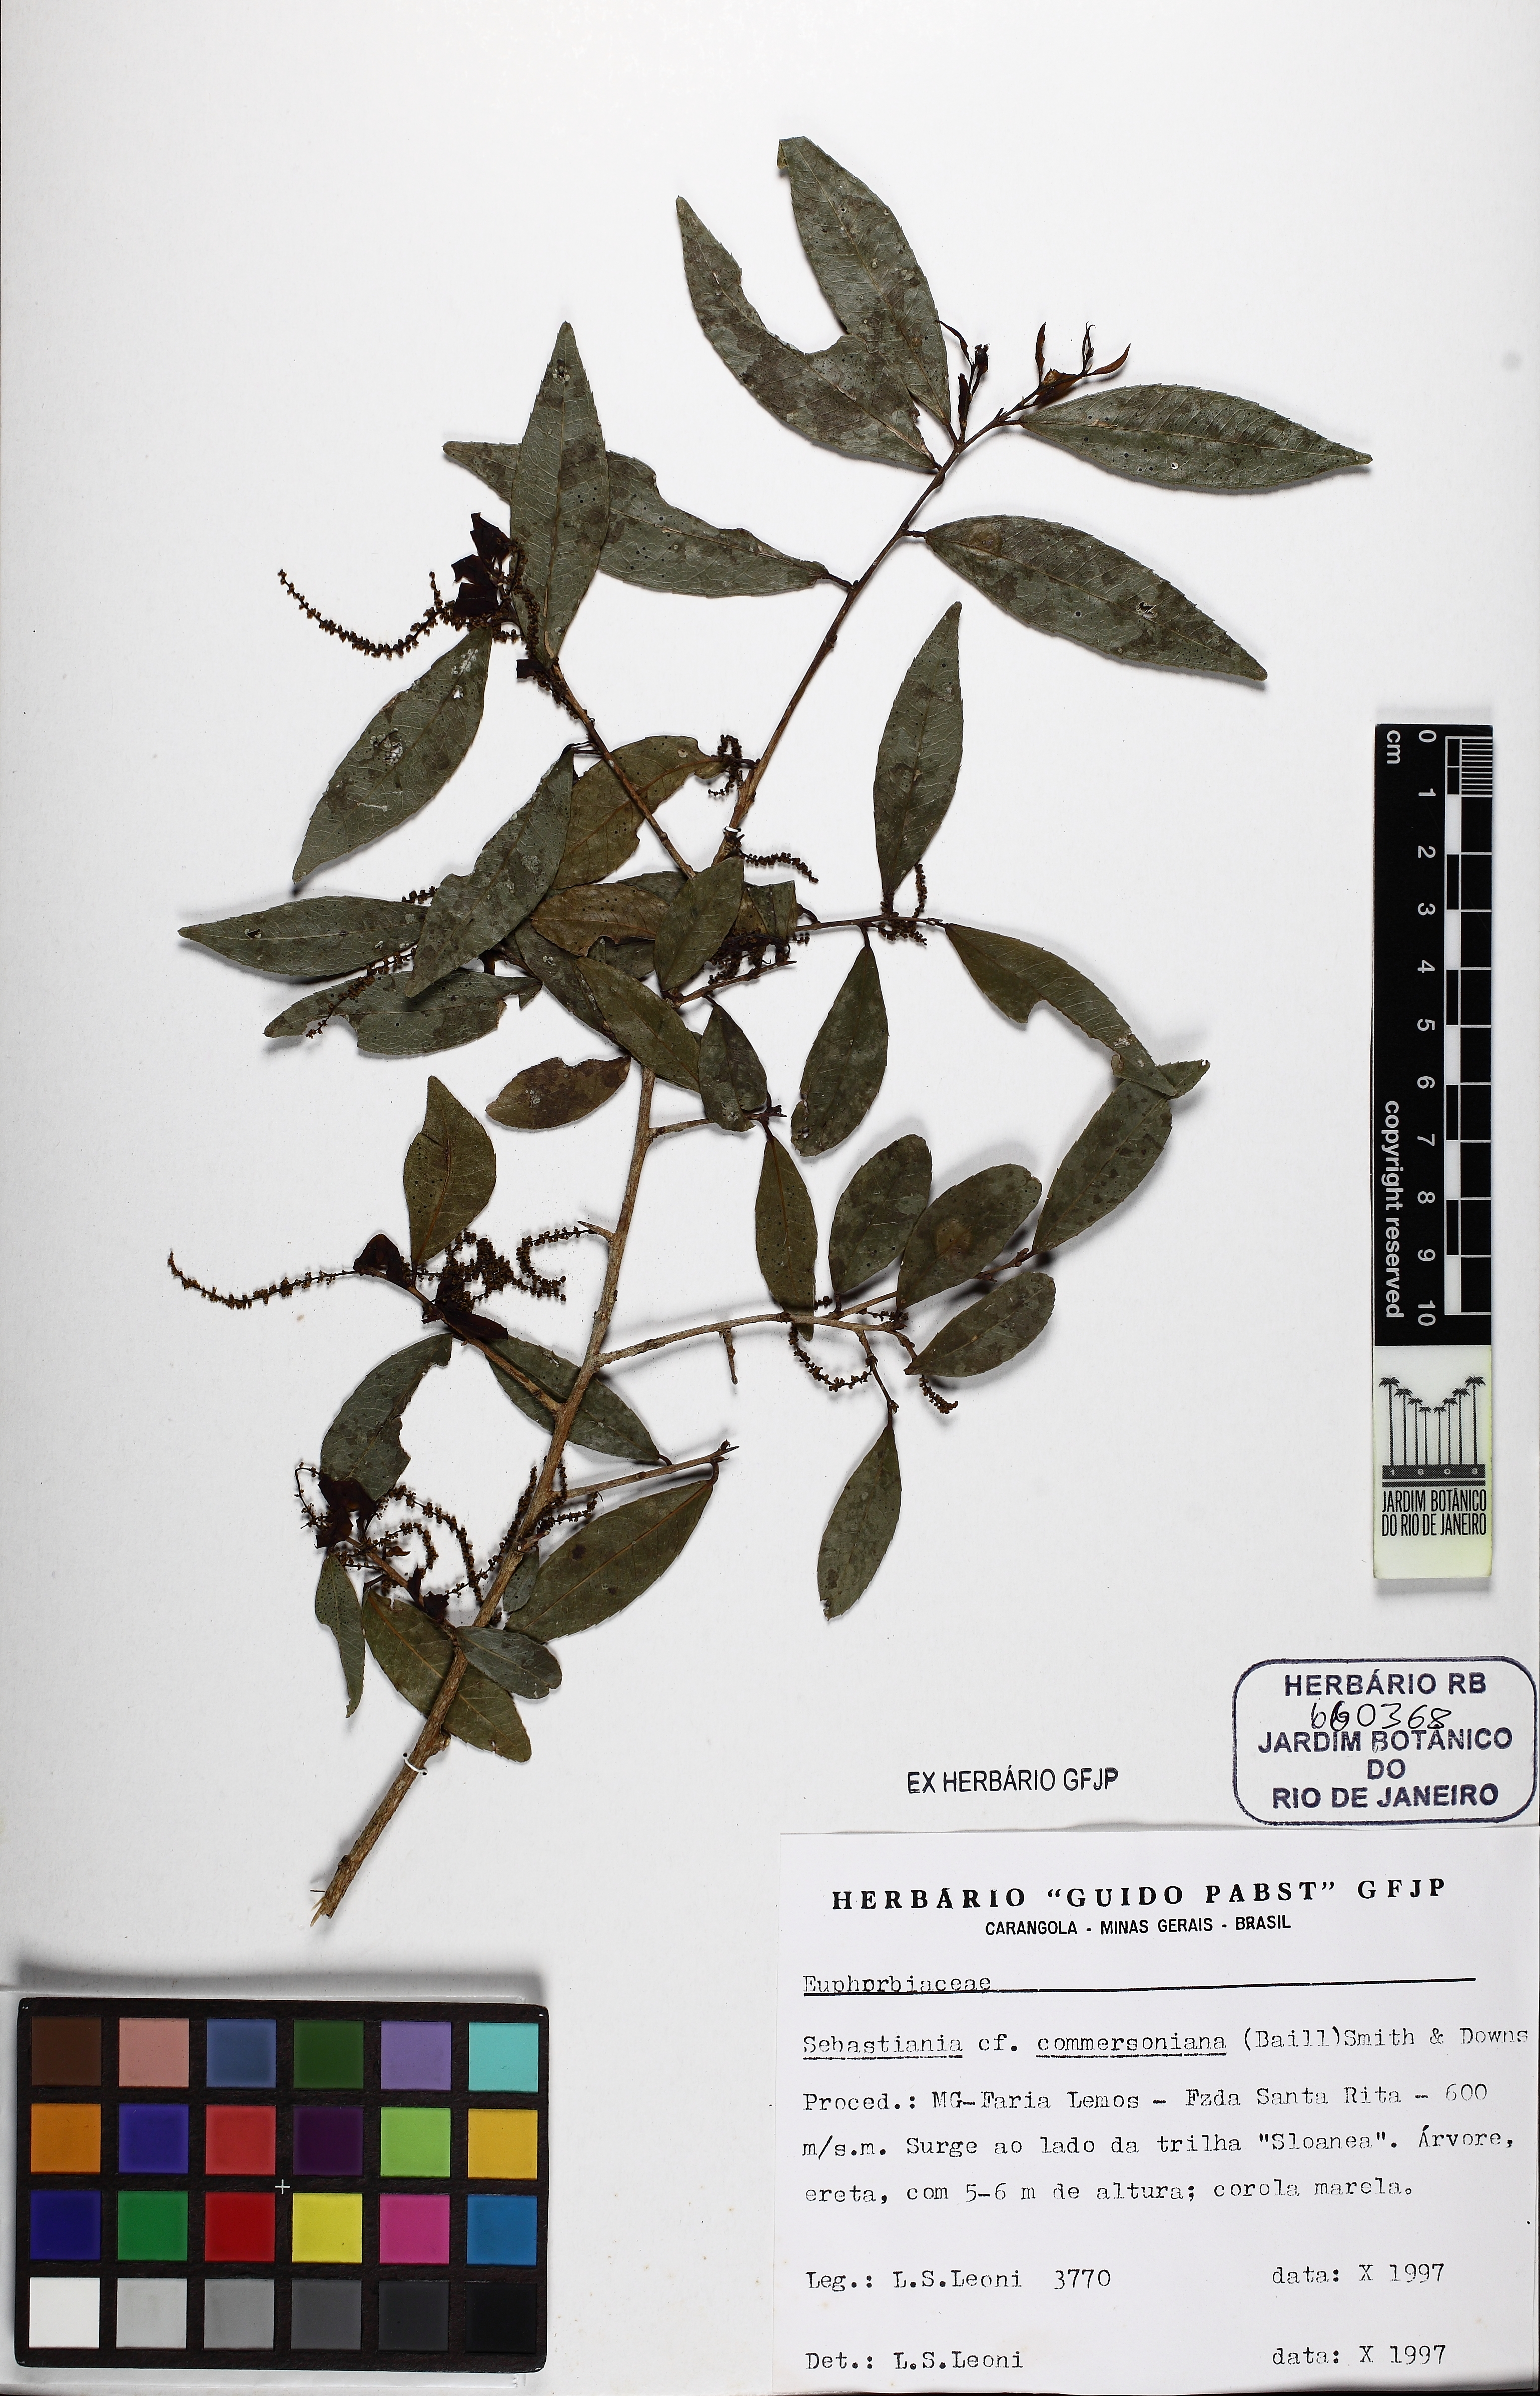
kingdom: Plantae
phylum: Tracheophyta
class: Magnoliopsida
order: Malpighiales
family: Euphorbiaceae
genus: Sebastiania
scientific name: Sebastiania klotzschiana
